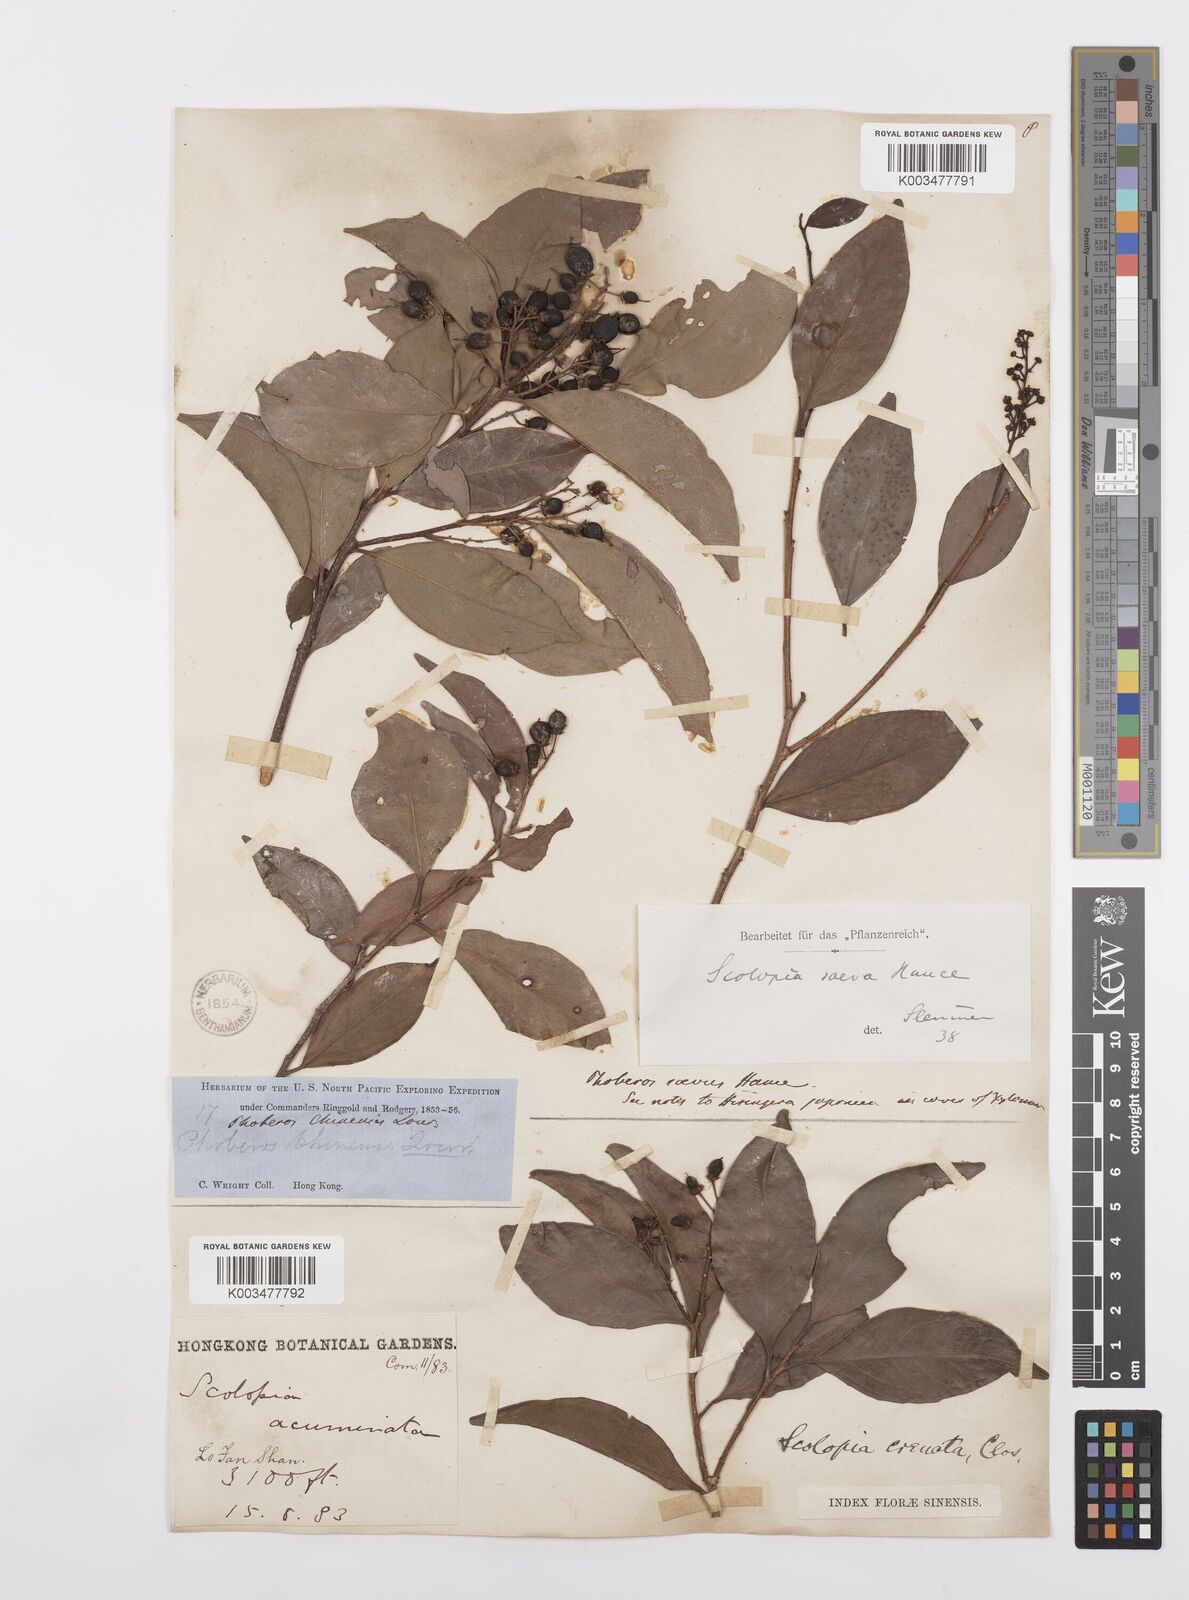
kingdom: Plantae
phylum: Tracheophyta
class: Magnoliopsida
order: Malpighiales
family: Salicaceae
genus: Scolopia
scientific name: Scolopia saeva
